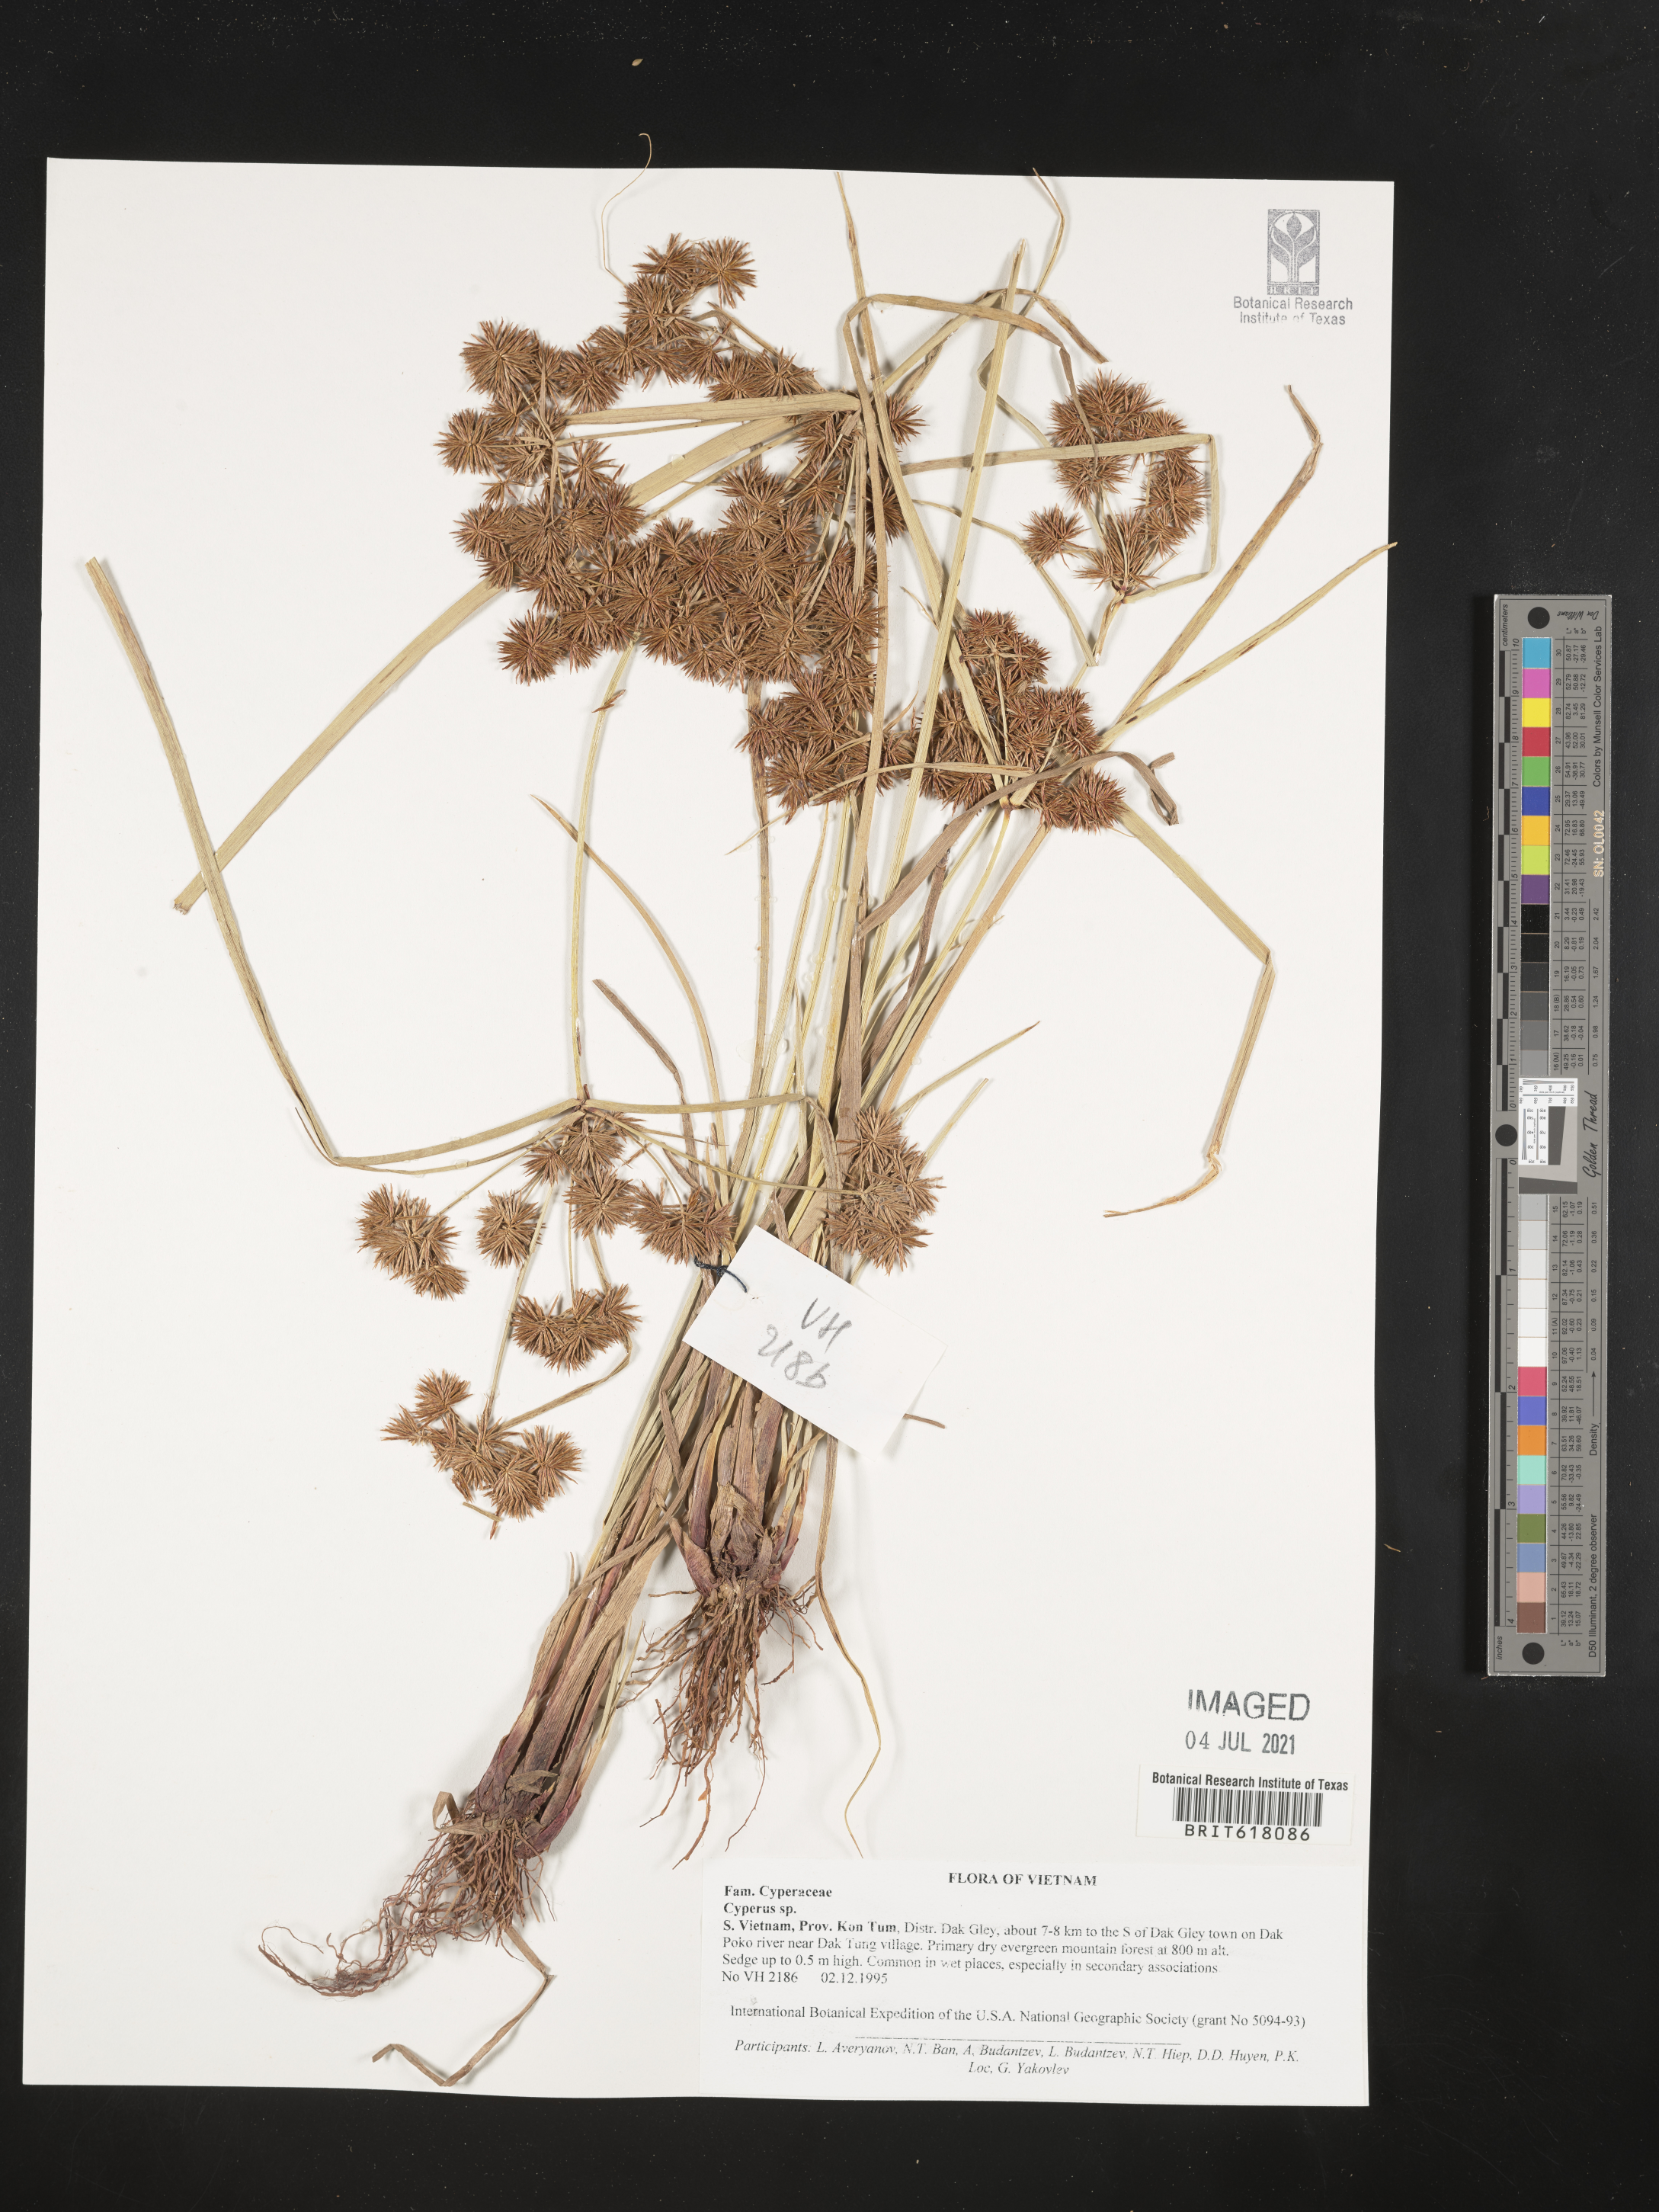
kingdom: Plantae
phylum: Tracheophyta
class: Liliopsida
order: Poales
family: Cyperaceae
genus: Cyperus
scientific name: Cyperus
